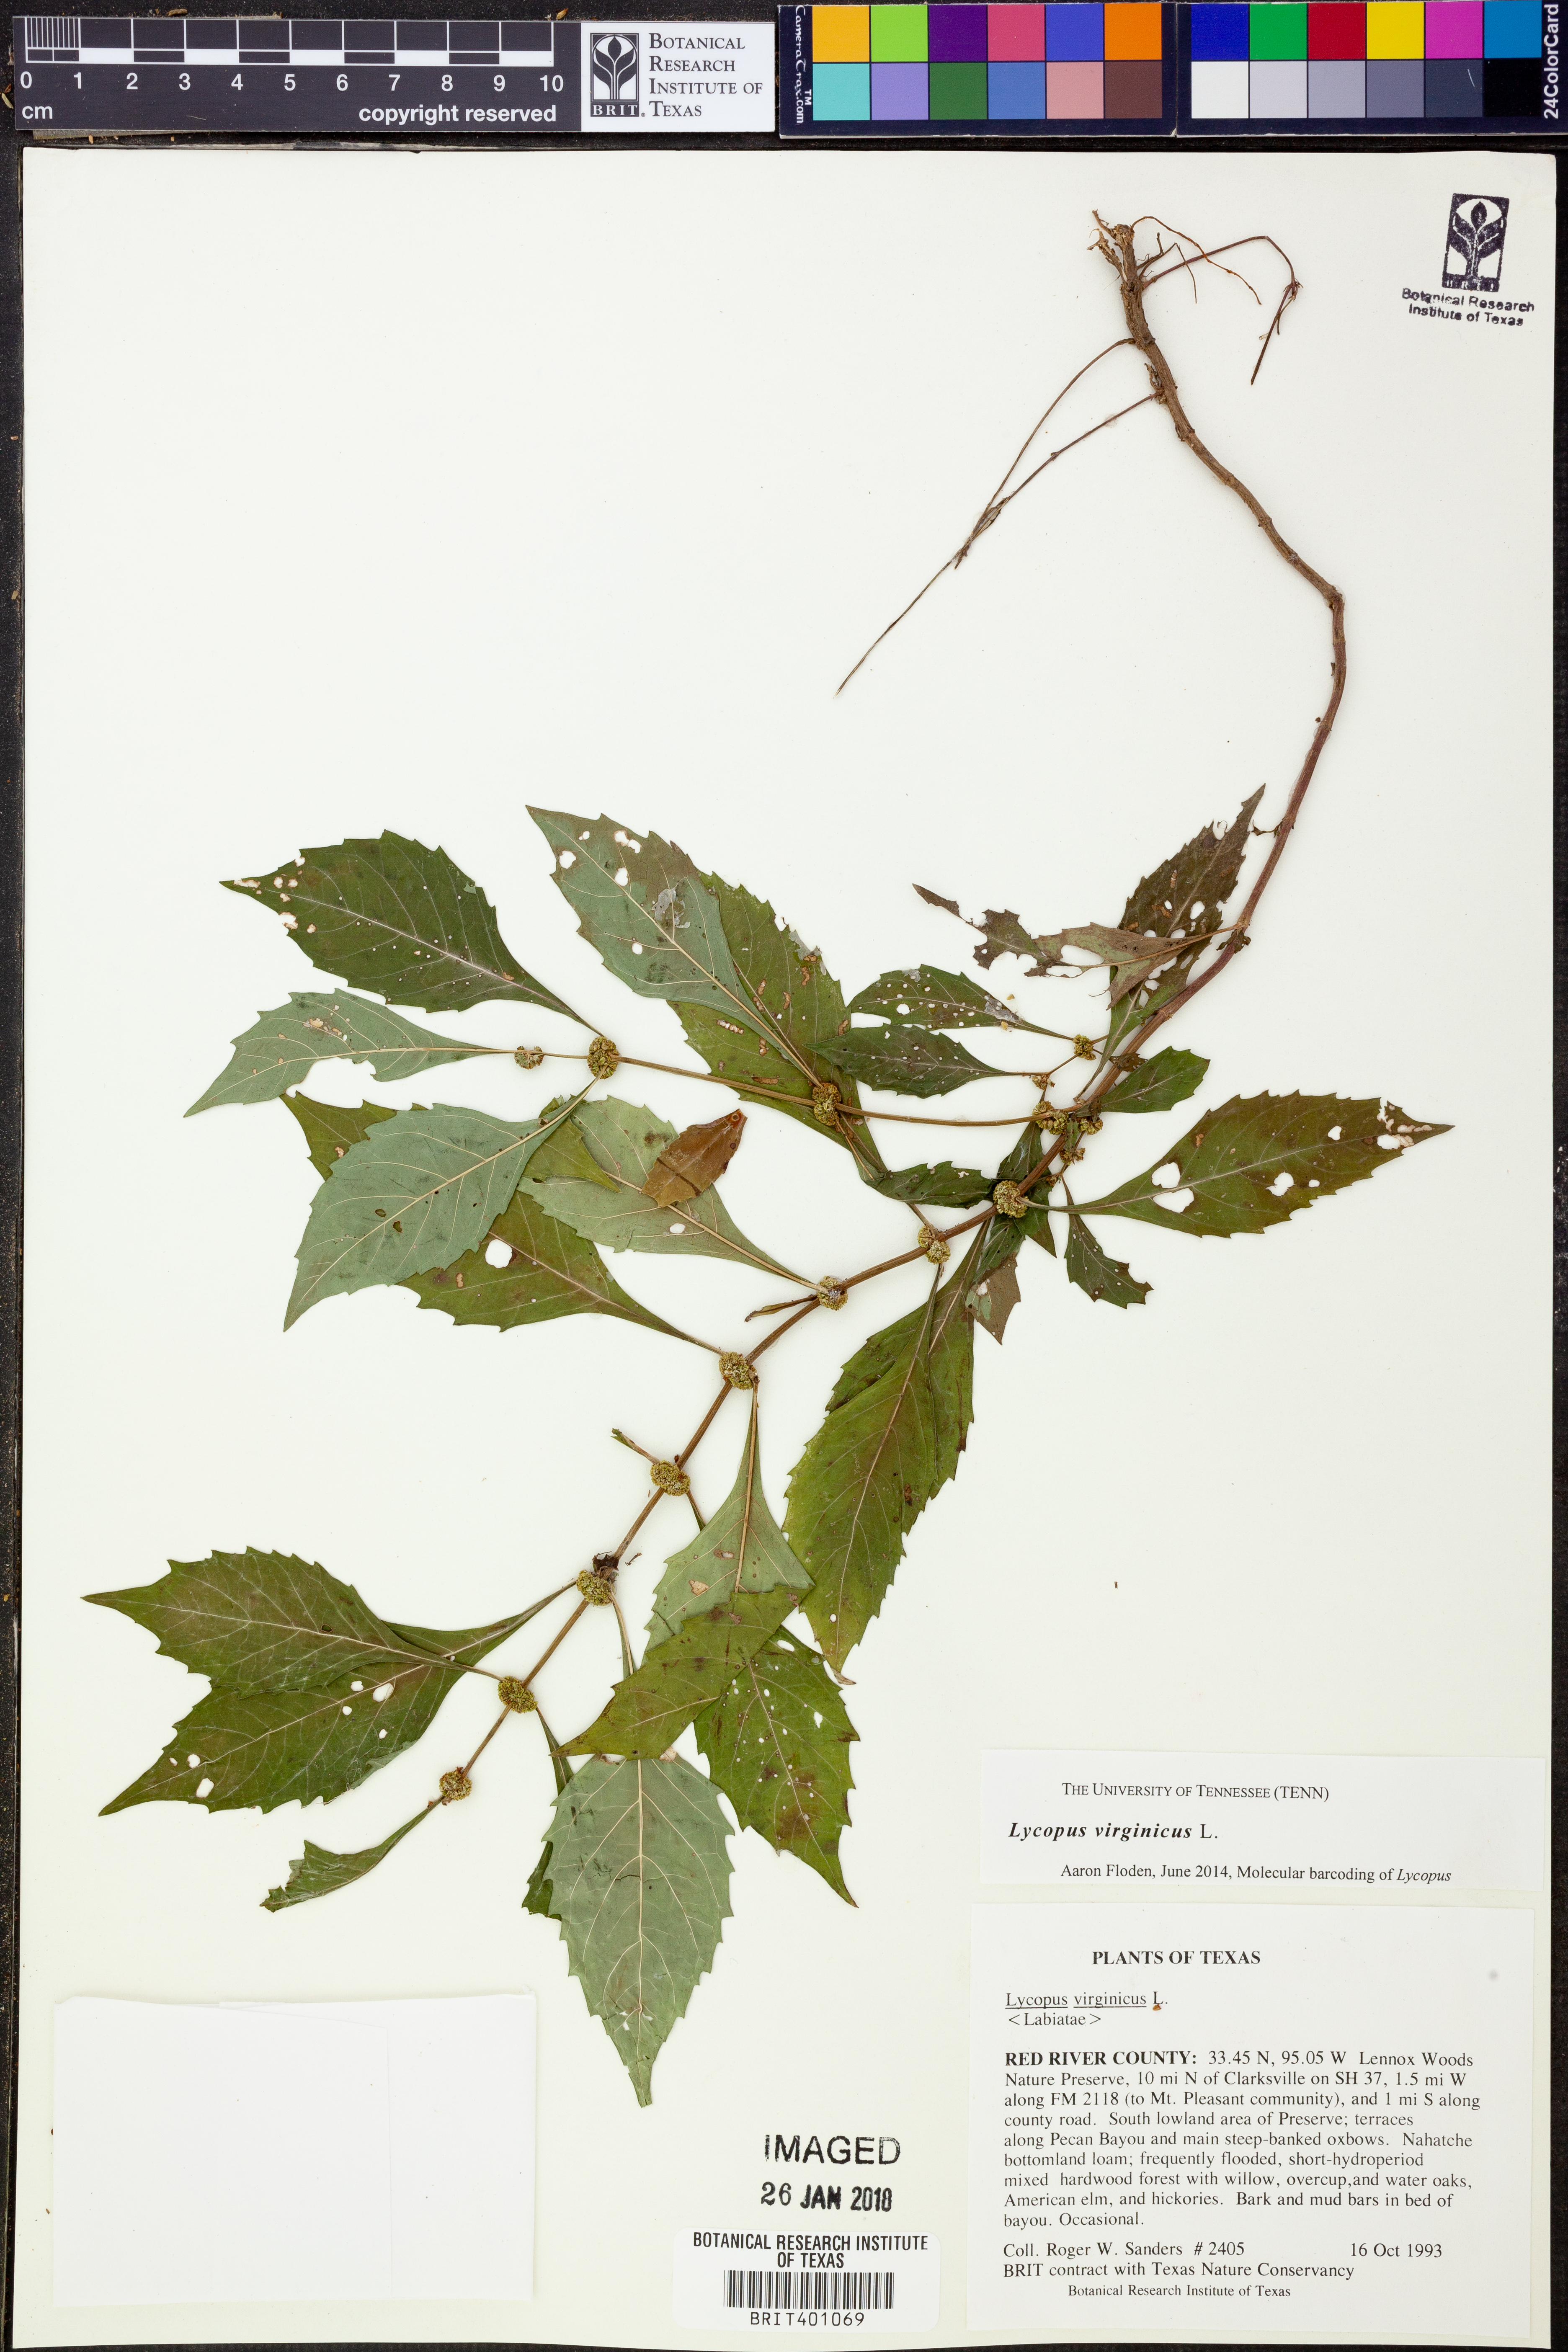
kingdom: Plantae
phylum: Tracheophyta
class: Magnoliopsida
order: Lamiales
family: Lamiaceae
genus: Lycopus
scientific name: Lycopus virginicus
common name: Bugleweed
